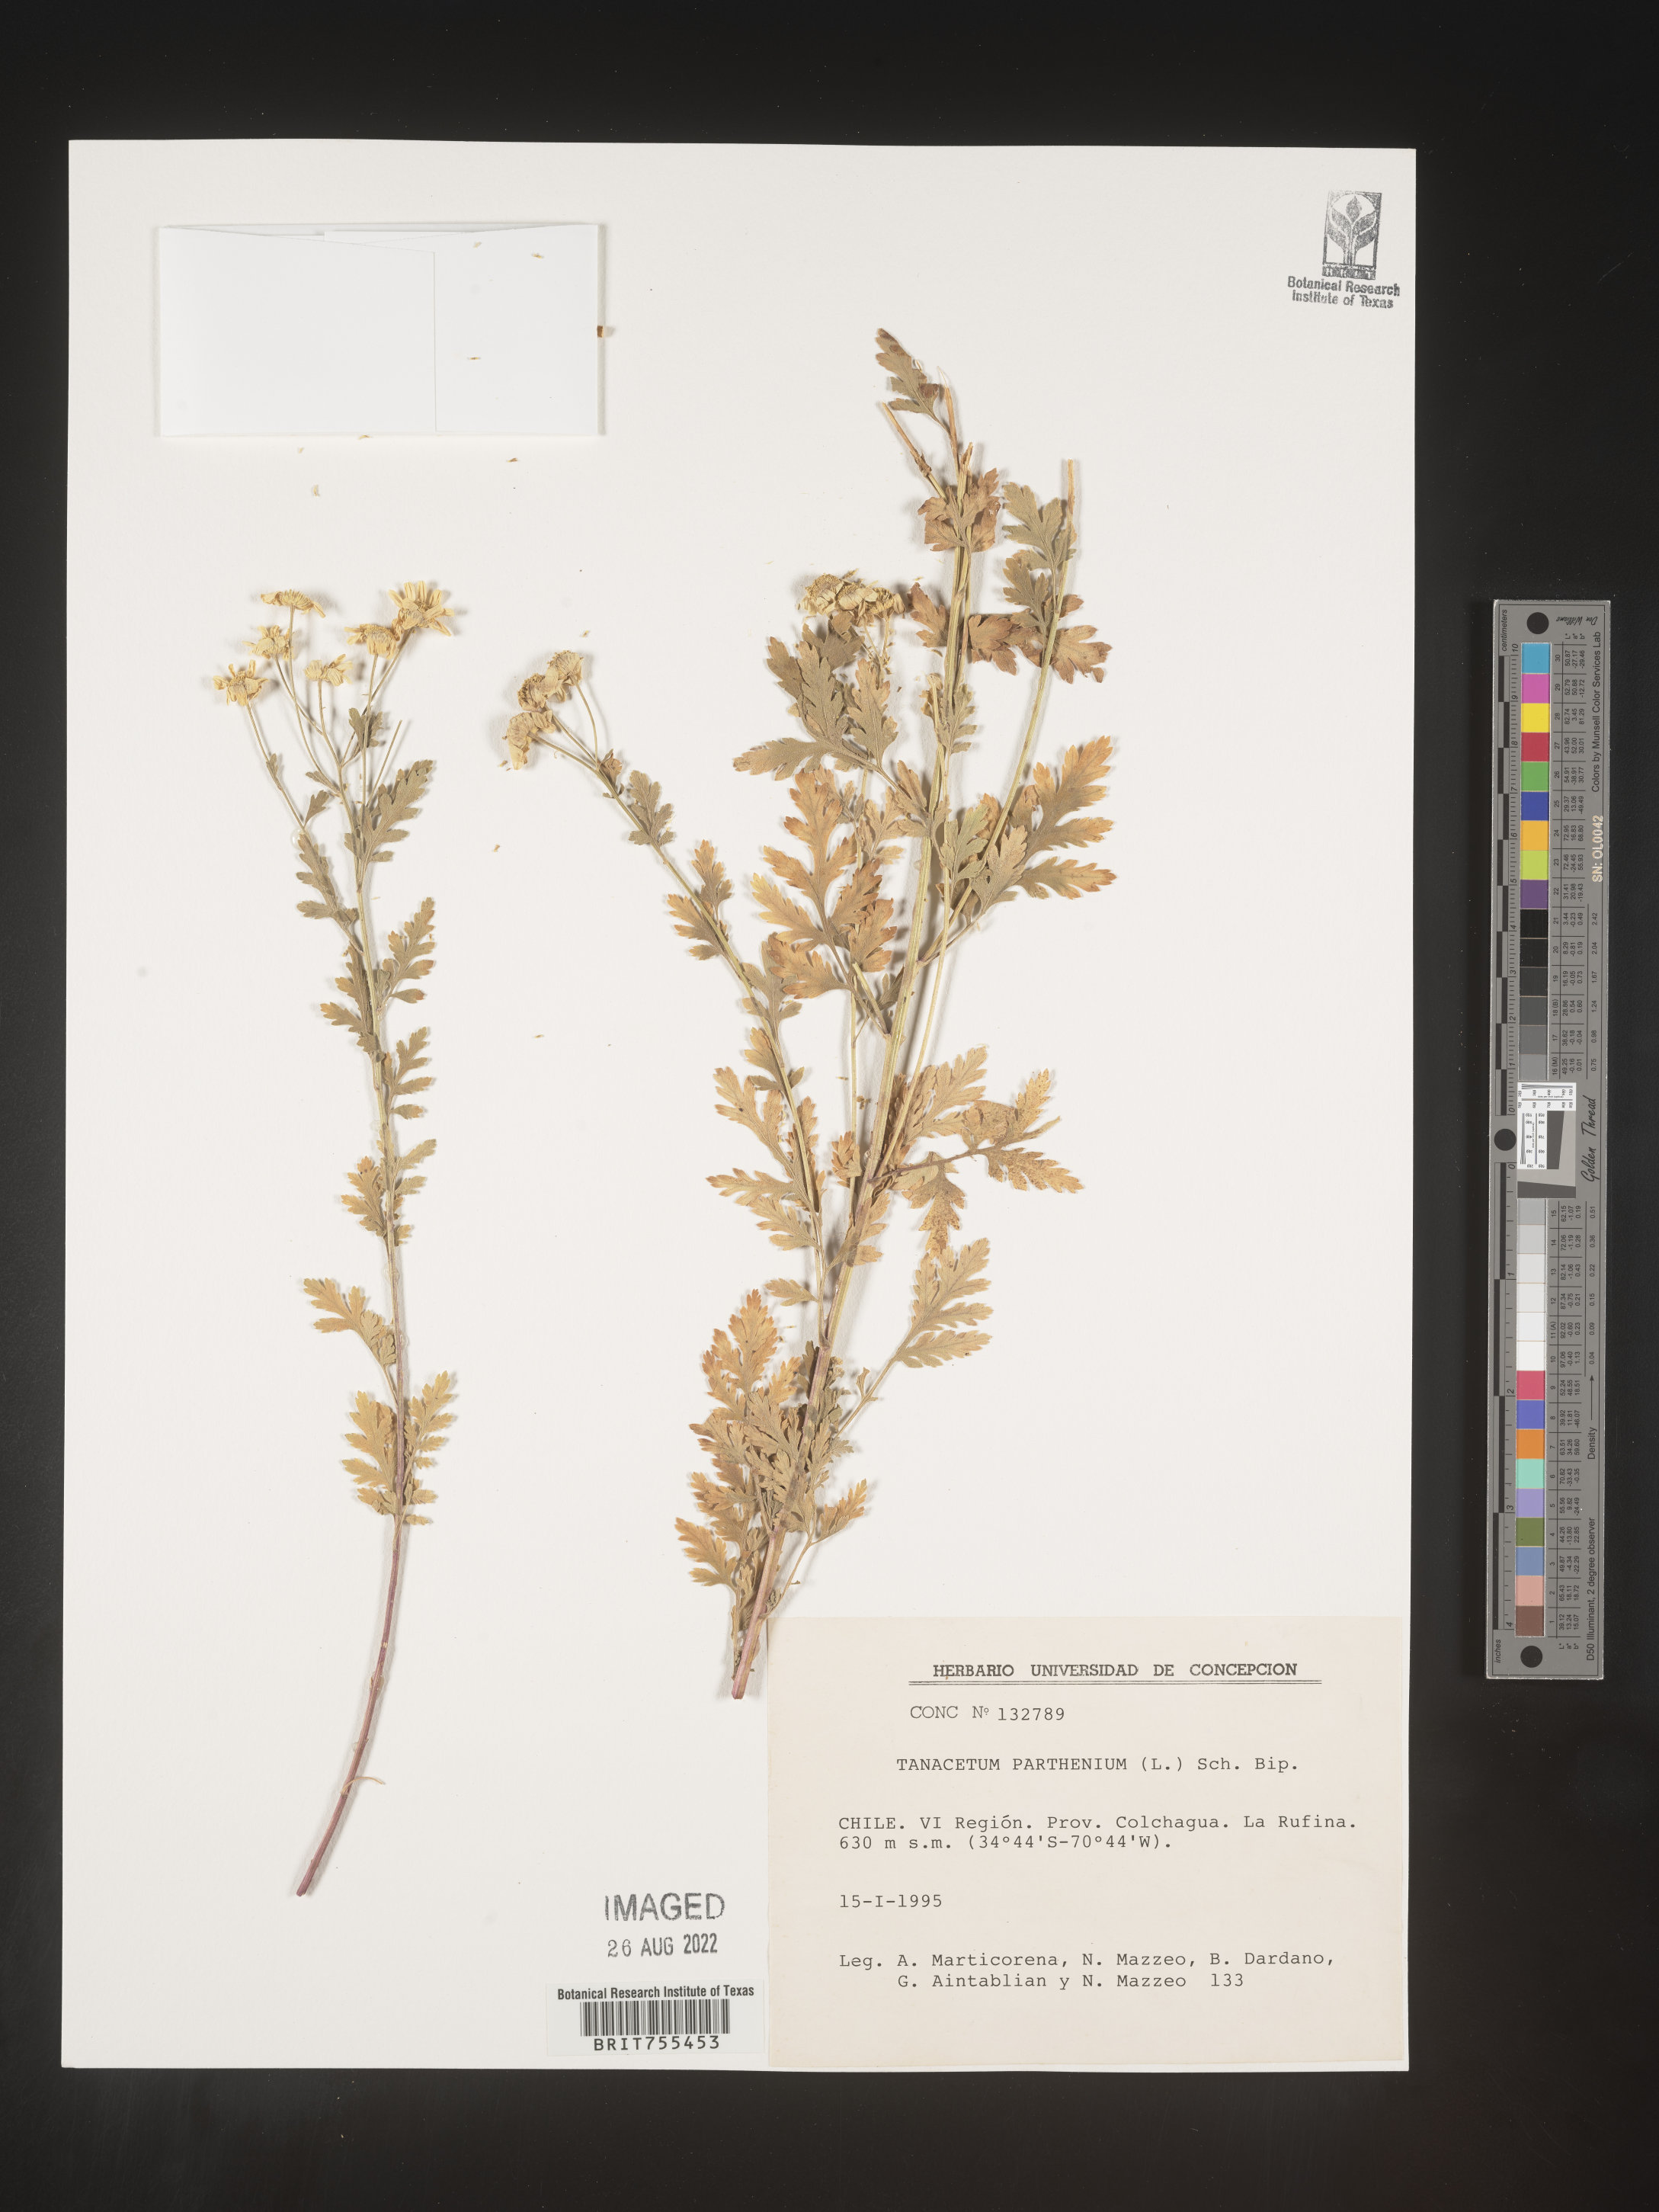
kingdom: Plantae
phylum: Tracheophyta
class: Magnoliopsida
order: Asterales
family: Asteraceae
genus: Tanacetum
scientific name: Tanacetum
